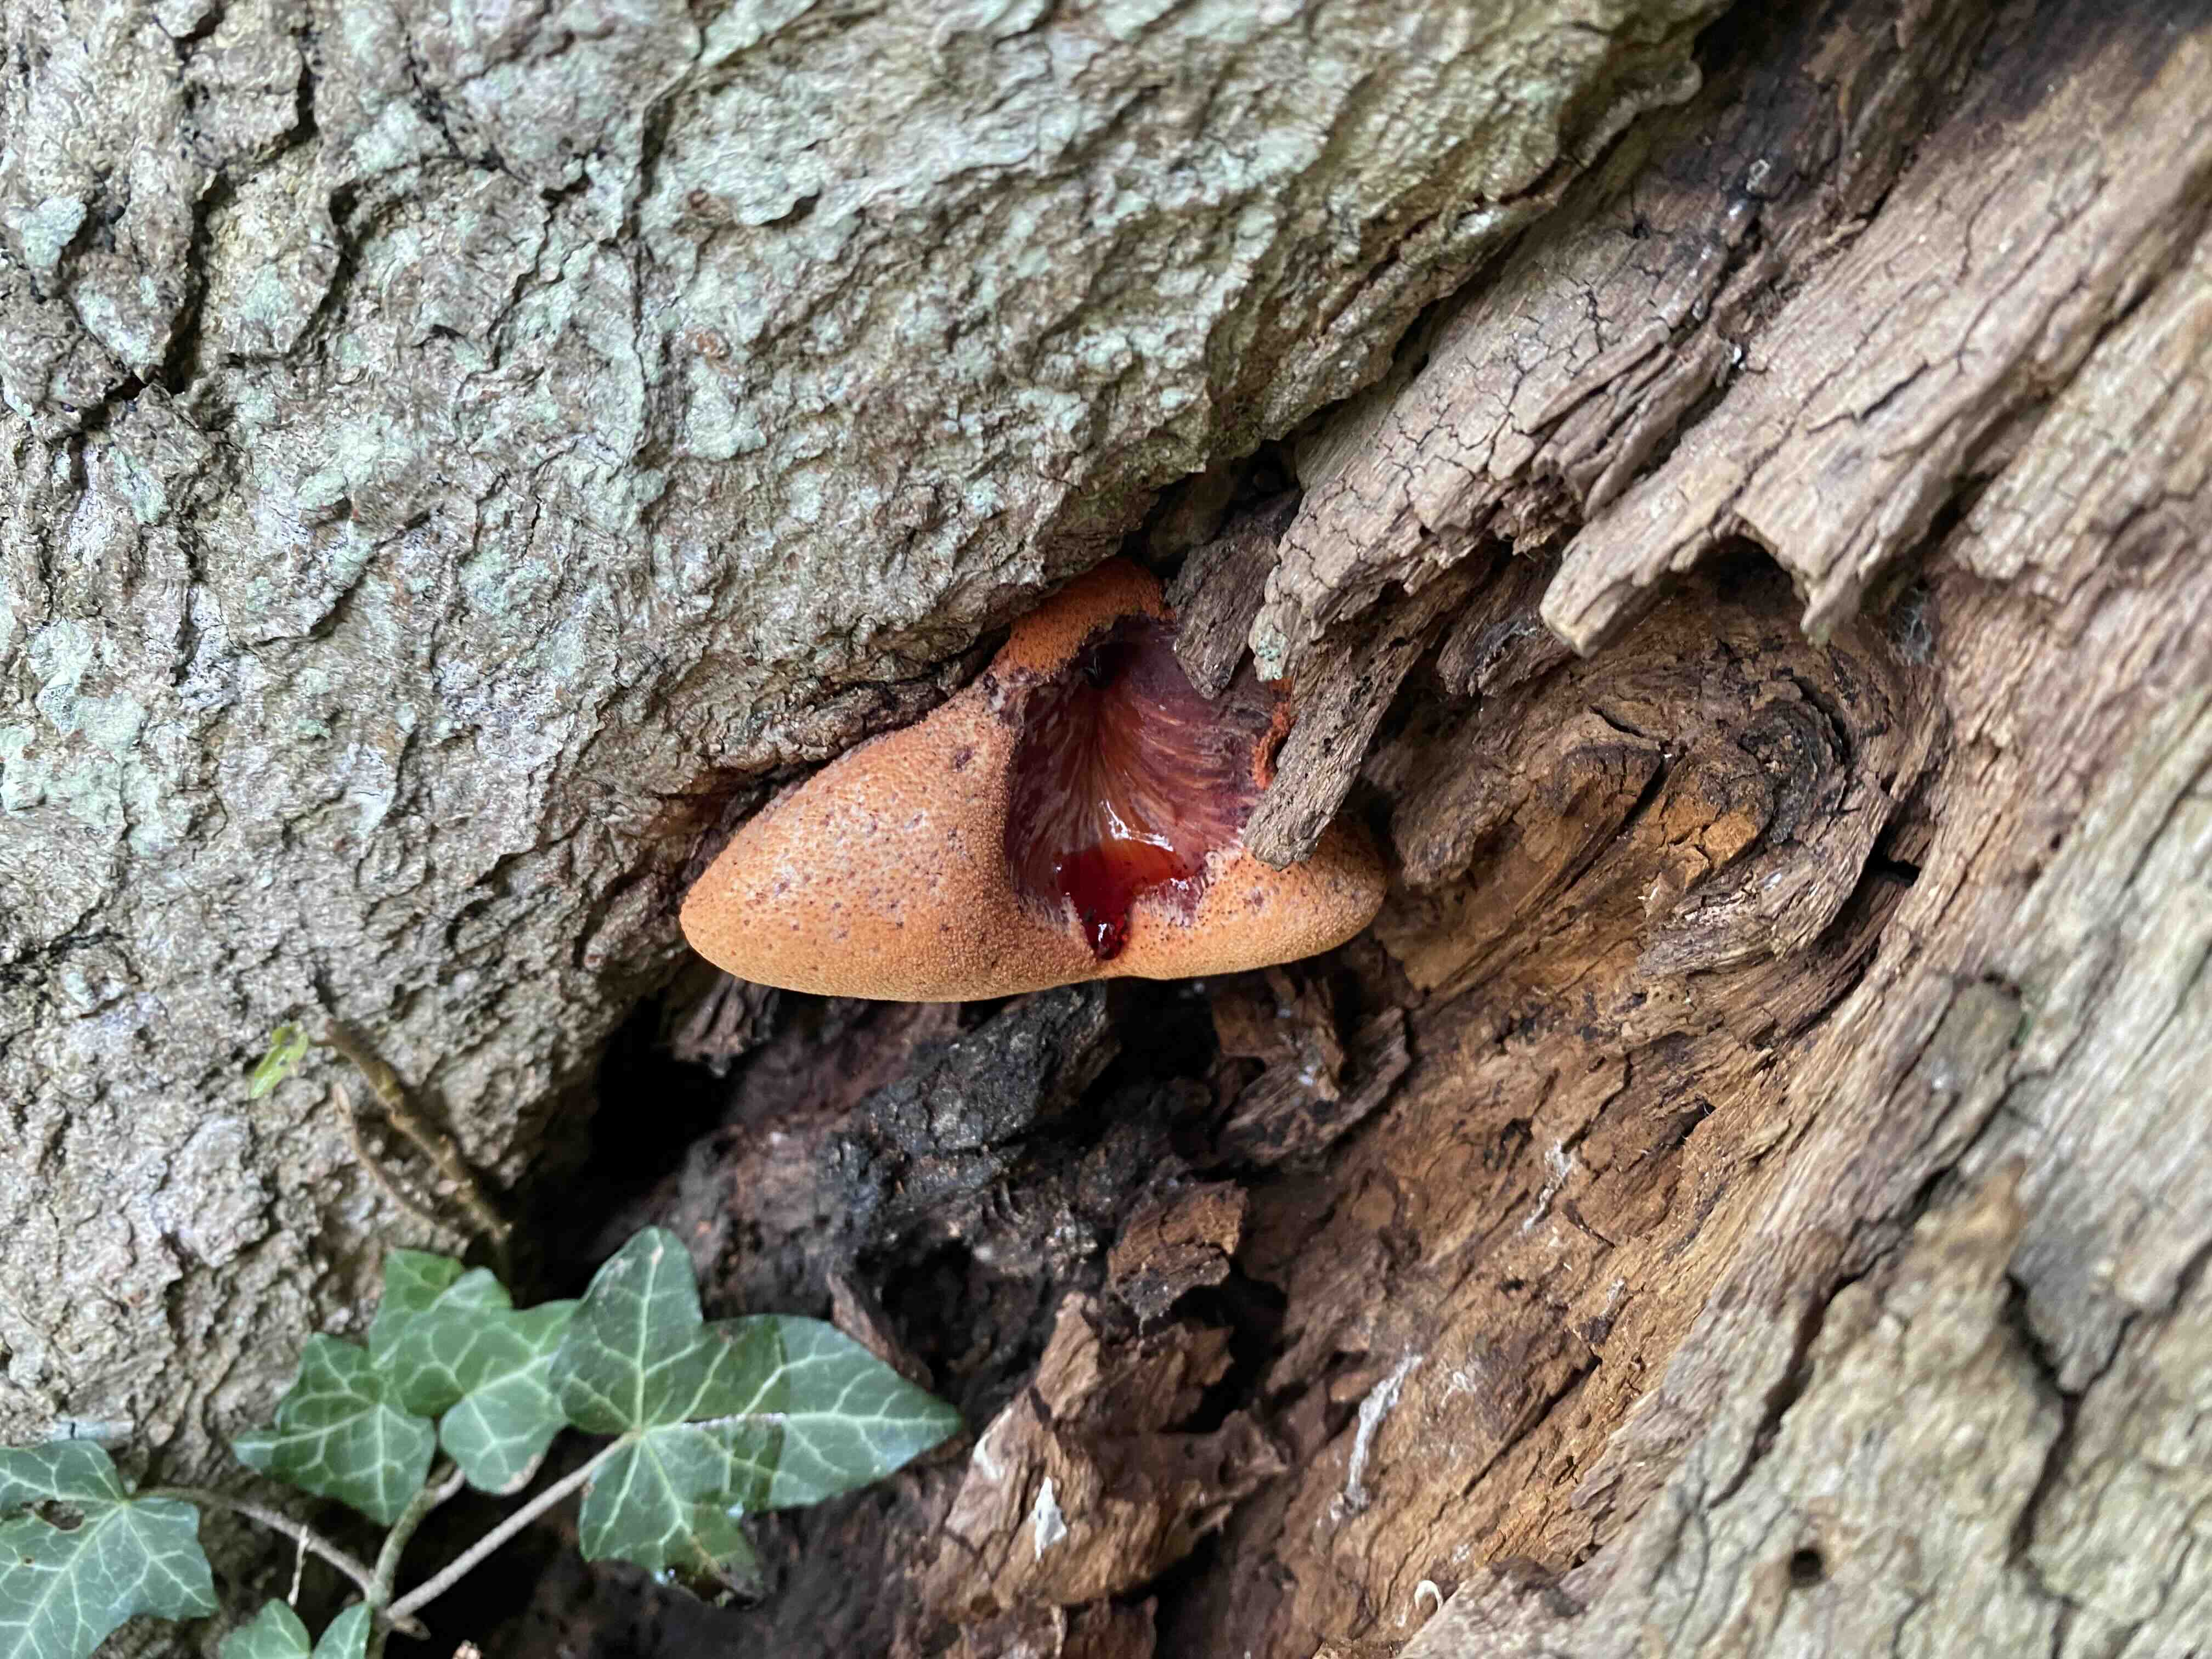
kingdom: Fungi
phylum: Basidiomycota
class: Agaricomycetes
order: Agaricales
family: Fistulinaceae
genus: Fistulina
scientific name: Fistulina hepatica
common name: oksetunge
